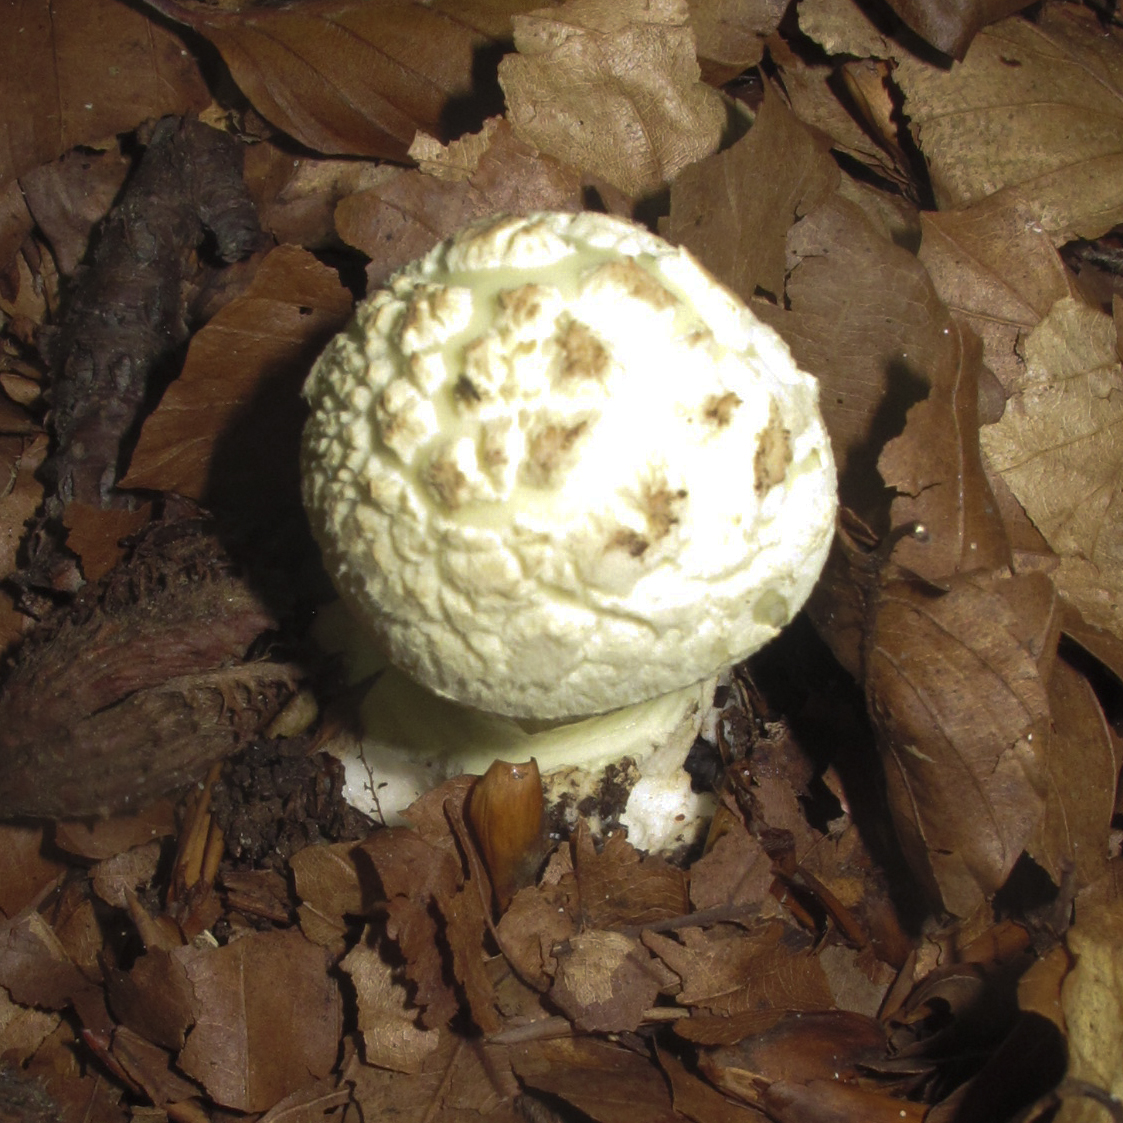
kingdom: Fungi
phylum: Basidiomycota
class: Agaricomycetes
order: Agaricales
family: Amanitaceae
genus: Amanita
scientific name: Amanita citrina
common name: kugleknoldet fluesvamp
